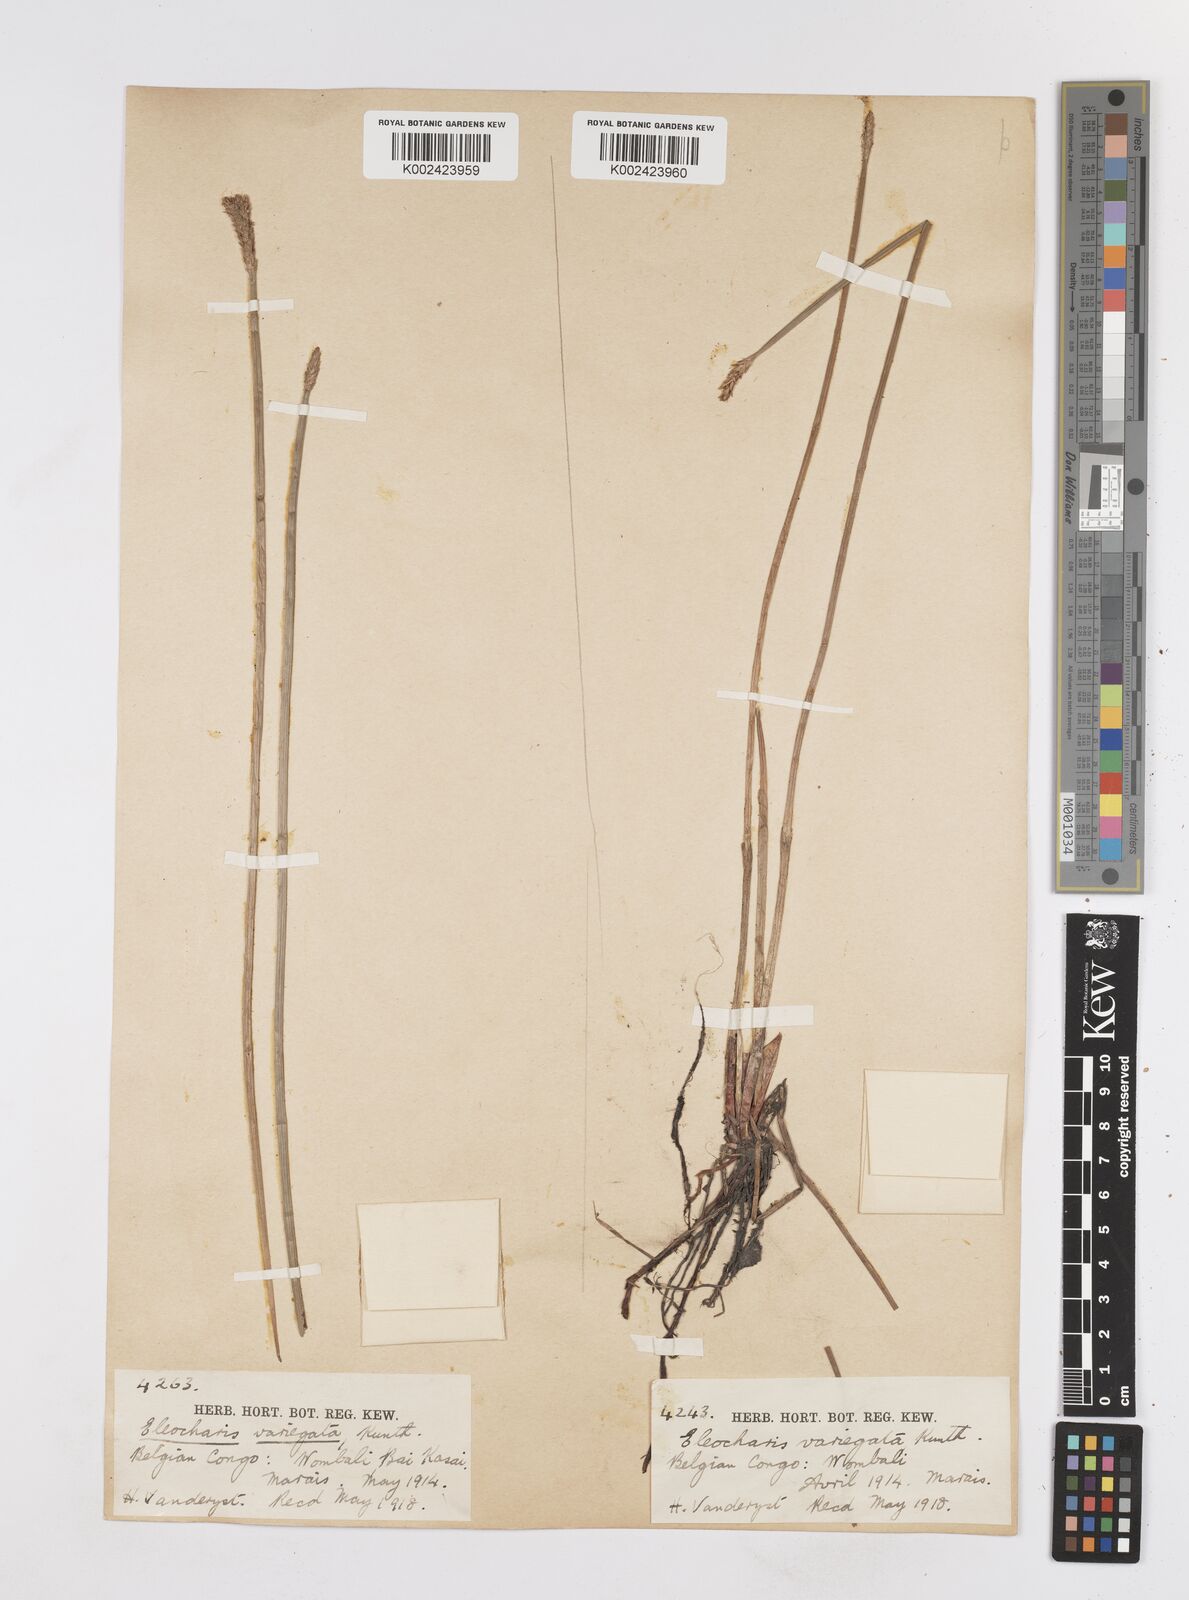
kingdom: Plantae
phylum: Tracheophyta
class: Liliopsida
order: Poales
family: Cyperaceae
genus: Eleocharis
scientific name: Eleocharis variegata
